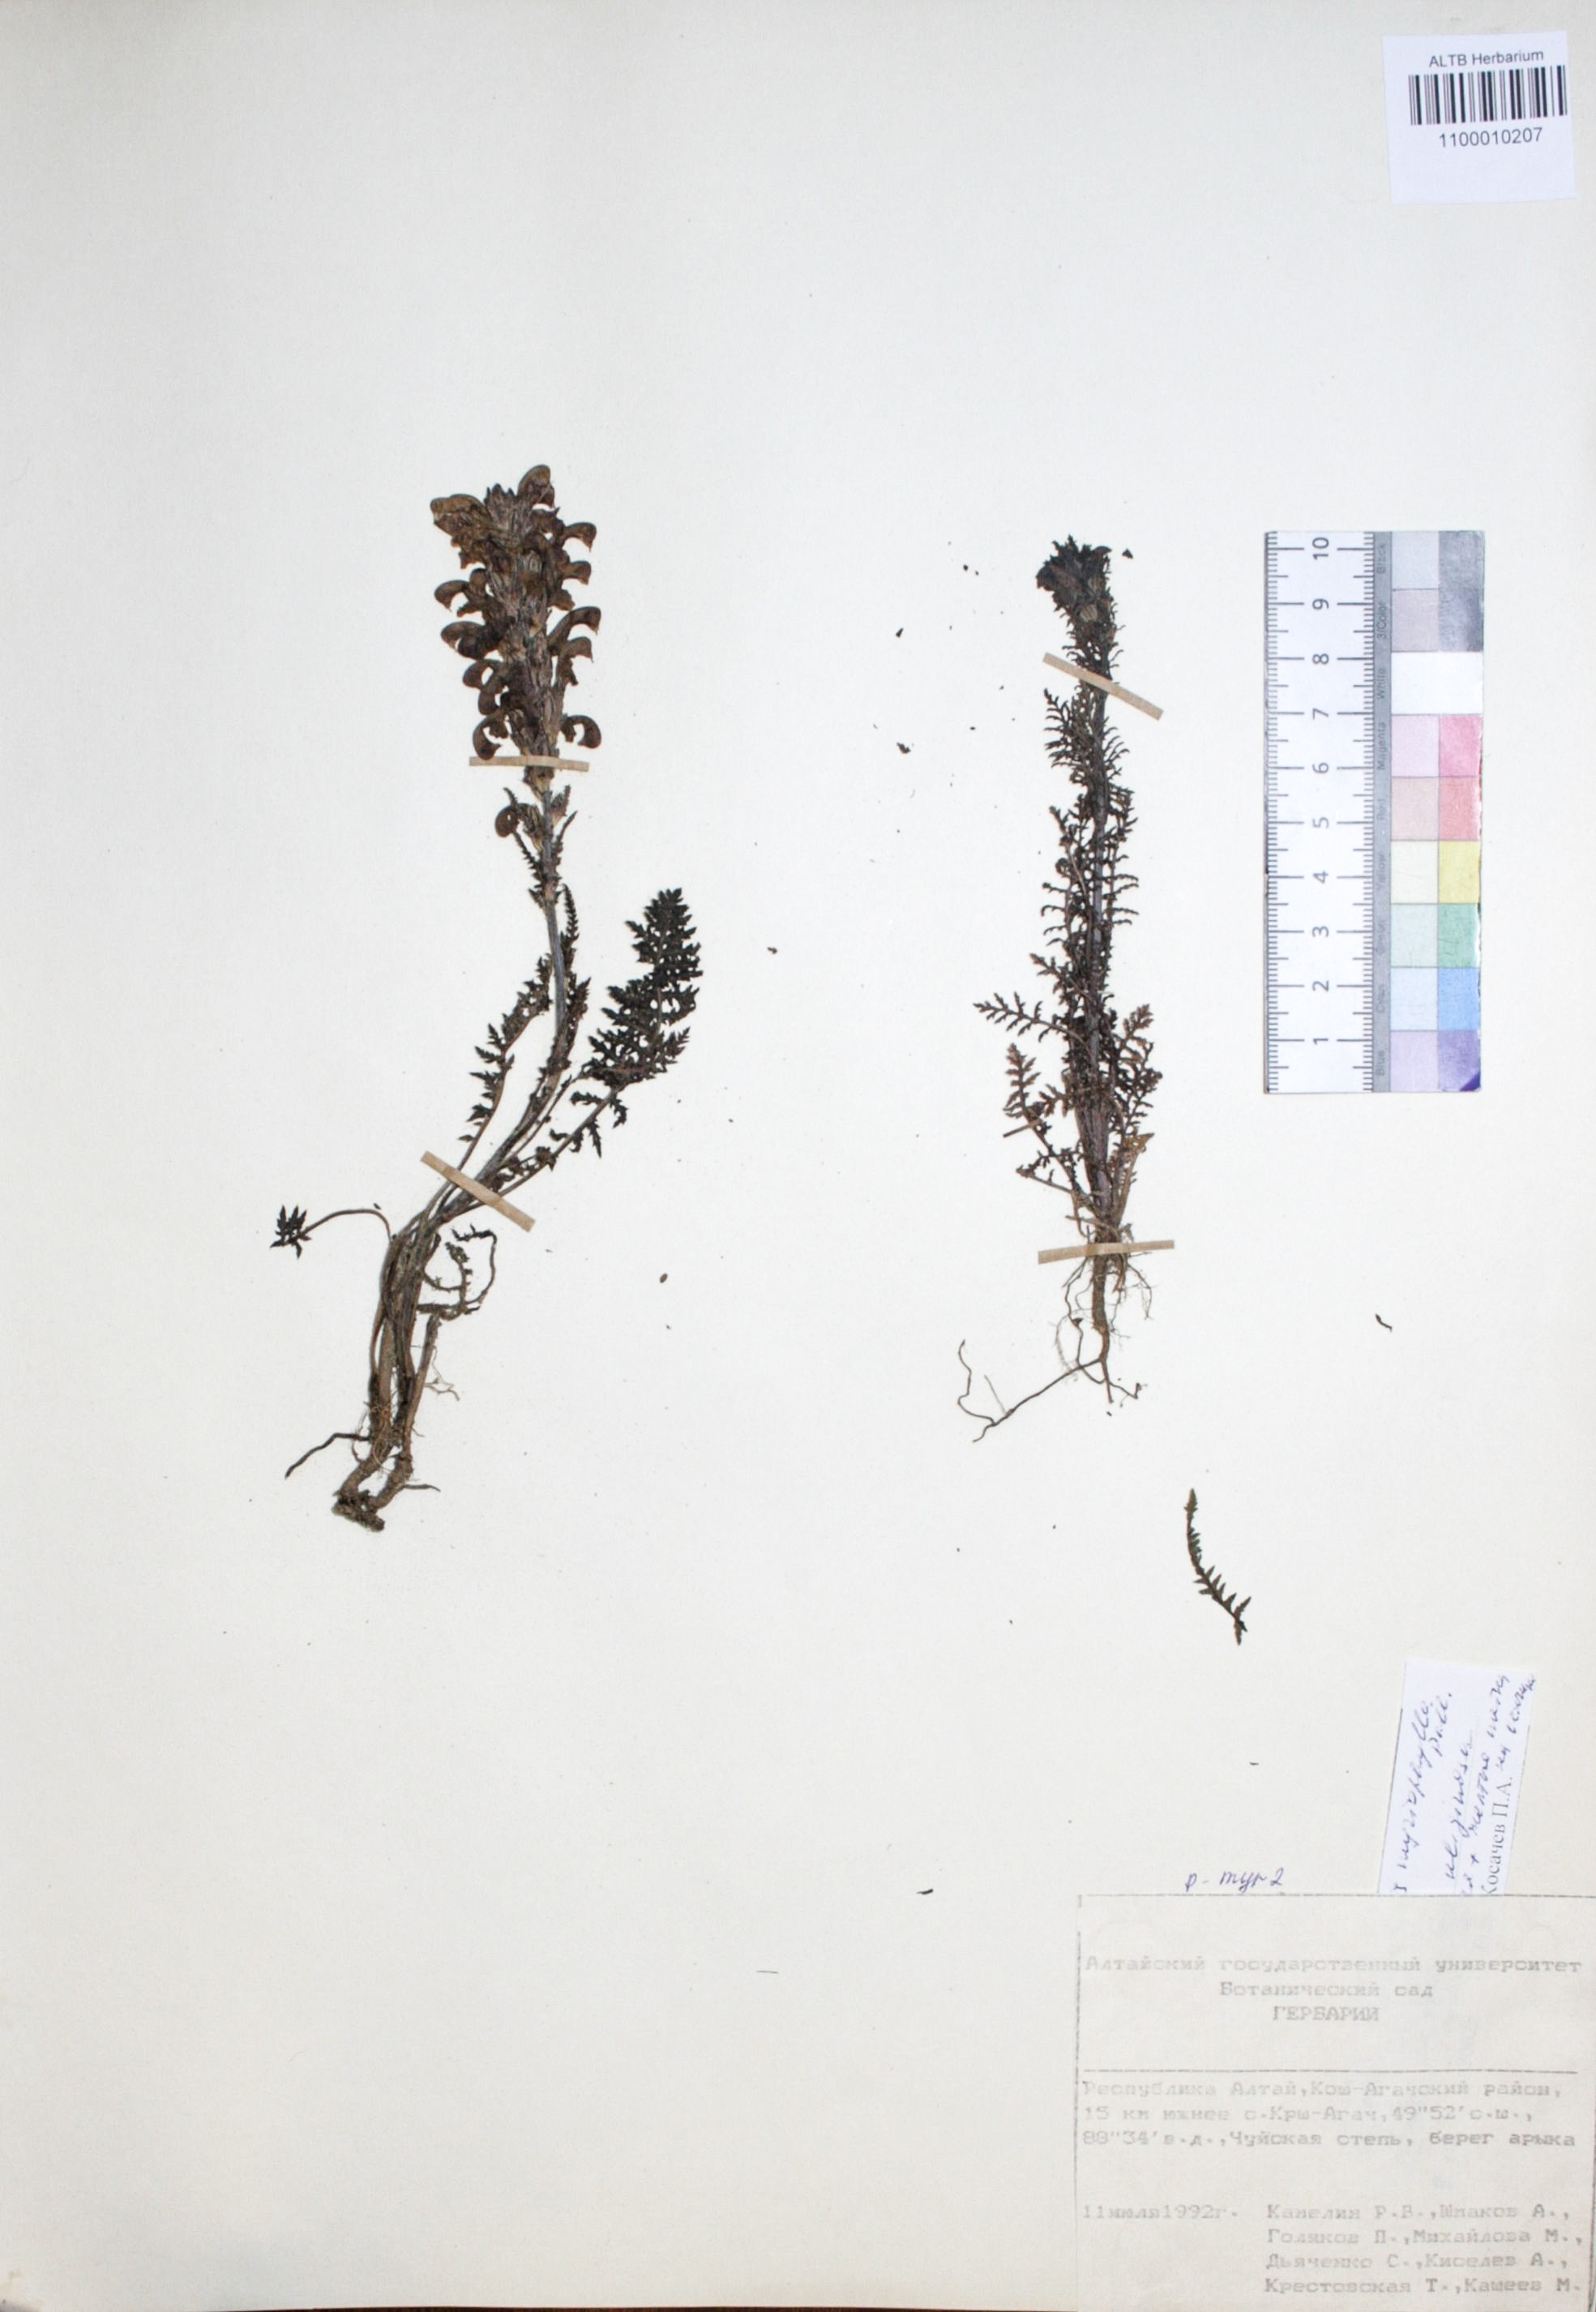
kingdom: Plantae
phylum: Tracheophyta
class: Magnoliopsida
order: Lamiales
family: Orobanchaceae
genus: Pedicularis
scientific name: Pedicularis anthemifolia
